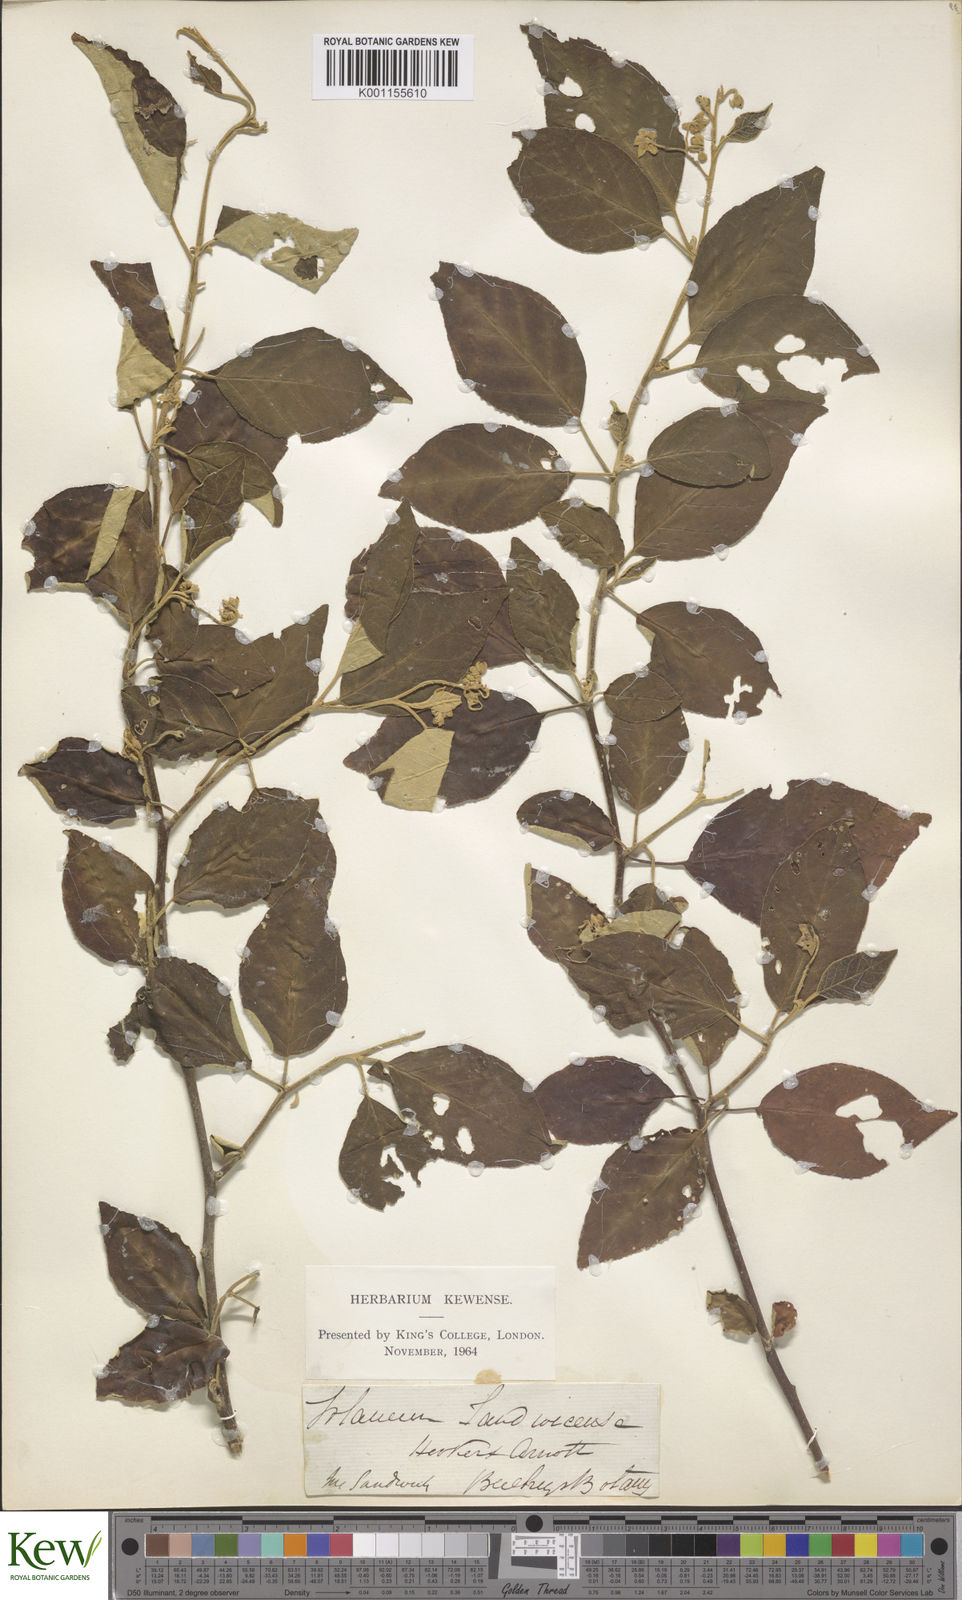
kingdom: Plantae
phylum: Tracheophyta
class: Magnoliopsida
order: Solanales
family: Solanaceae
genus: Solanum
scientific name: Solanum sandwicense
